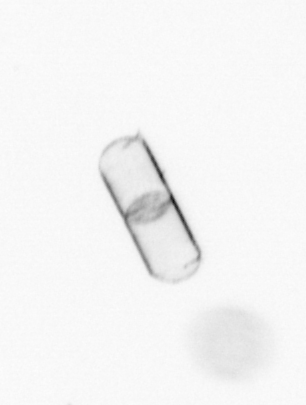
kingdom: Chromista
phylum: Ochrophyta
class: Bacillariophyceae
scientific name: Bacillariophyceae
